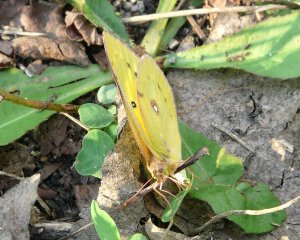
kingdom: Animalia
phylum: Arthropoda
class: Insecta
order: Lepidoptera
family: Pieridae
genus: Colias
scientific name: Colias eurytheme
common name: Orange Sulphur
